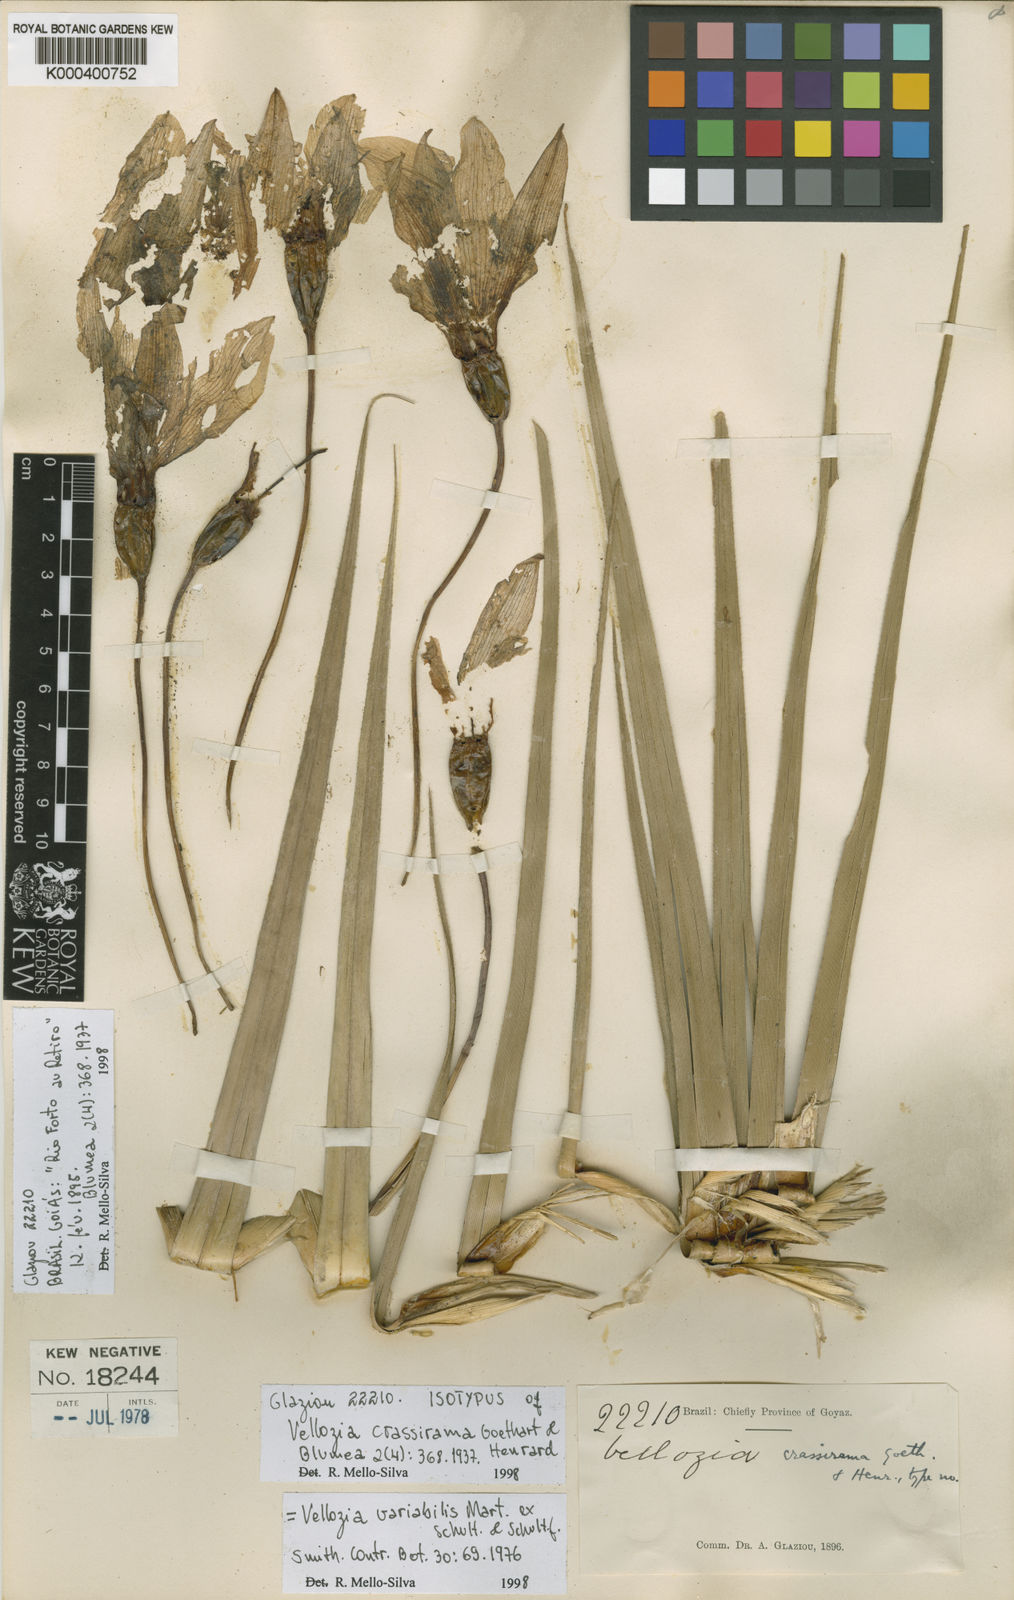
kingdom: Plantae
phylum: Tracheophyta
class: Liliopsida
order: Pandanales
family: Velloziaceae
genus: Vellozia
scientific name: Vellozia alutacea
